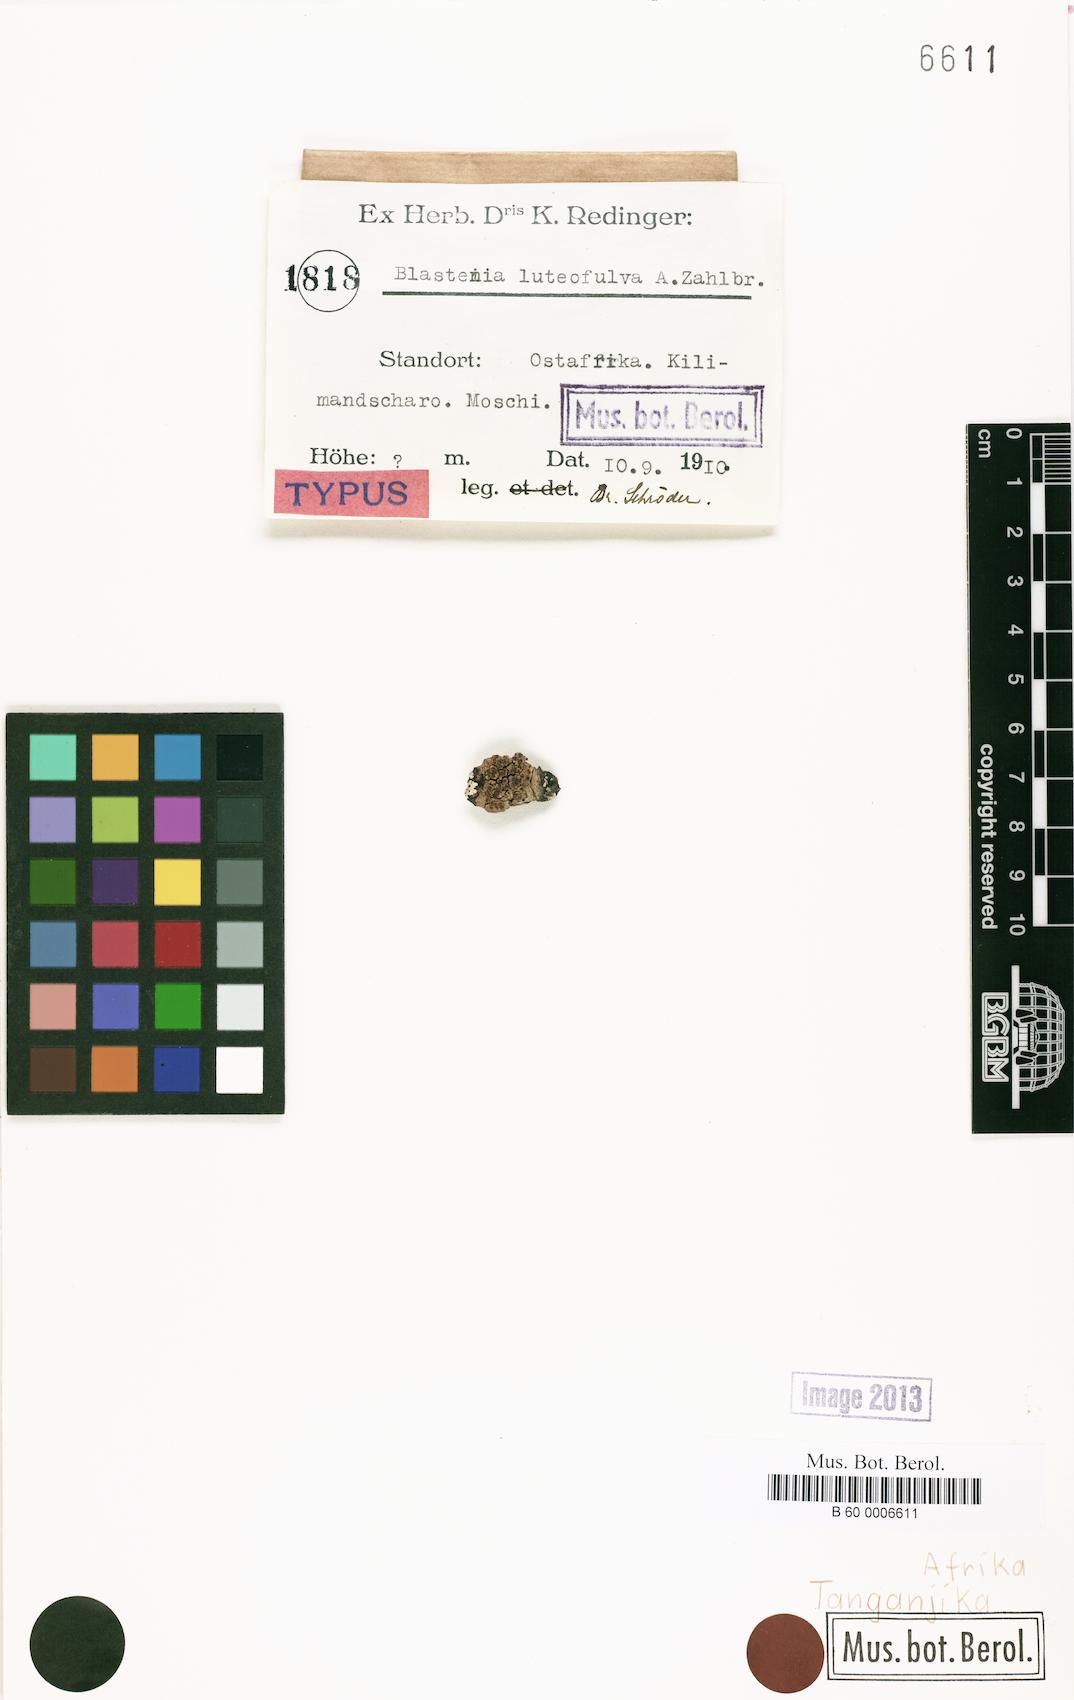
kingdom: Fungi
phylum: Ascomycota
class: Lecanoromycetes
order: Teloschistales
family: Teloschistaceae
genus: Blastenia
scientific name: Blastenia
